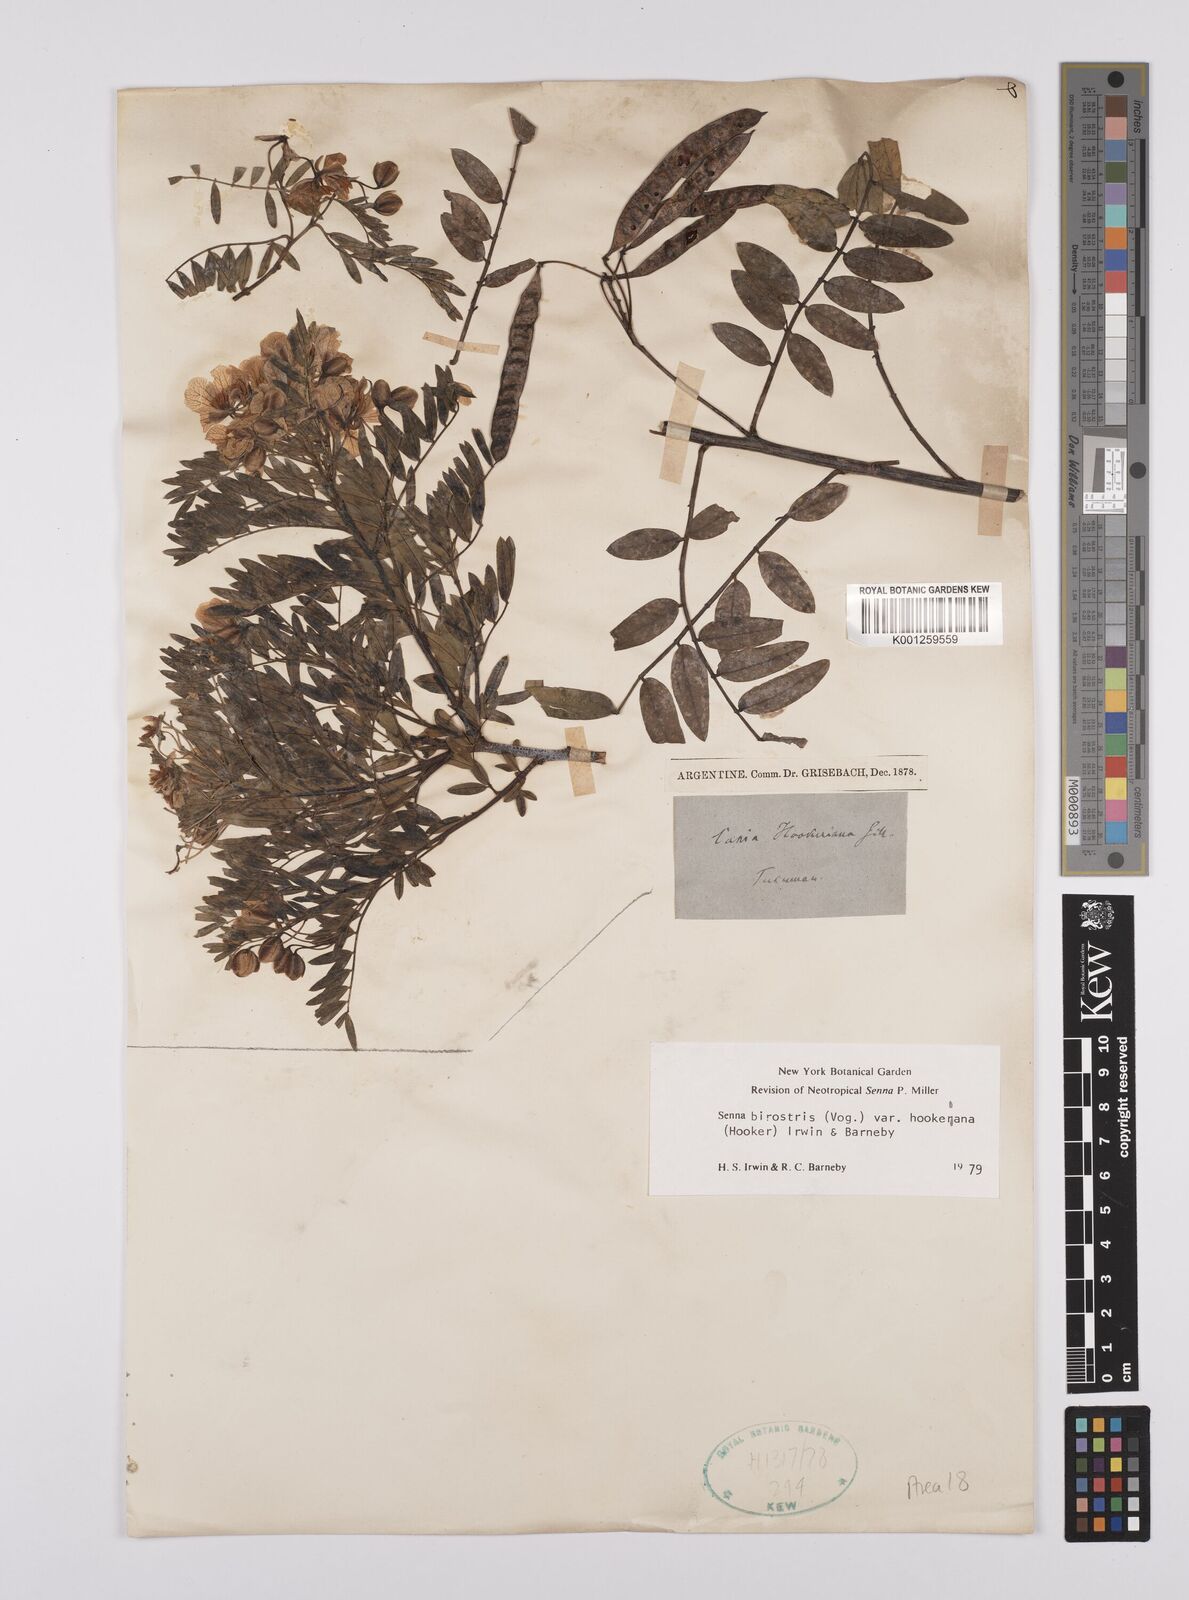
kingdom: Plantae
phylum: Tracheophyta
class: Magnoliopsida
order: Fabales
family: Fabaceae
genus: Senna
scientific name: Senna birostris
